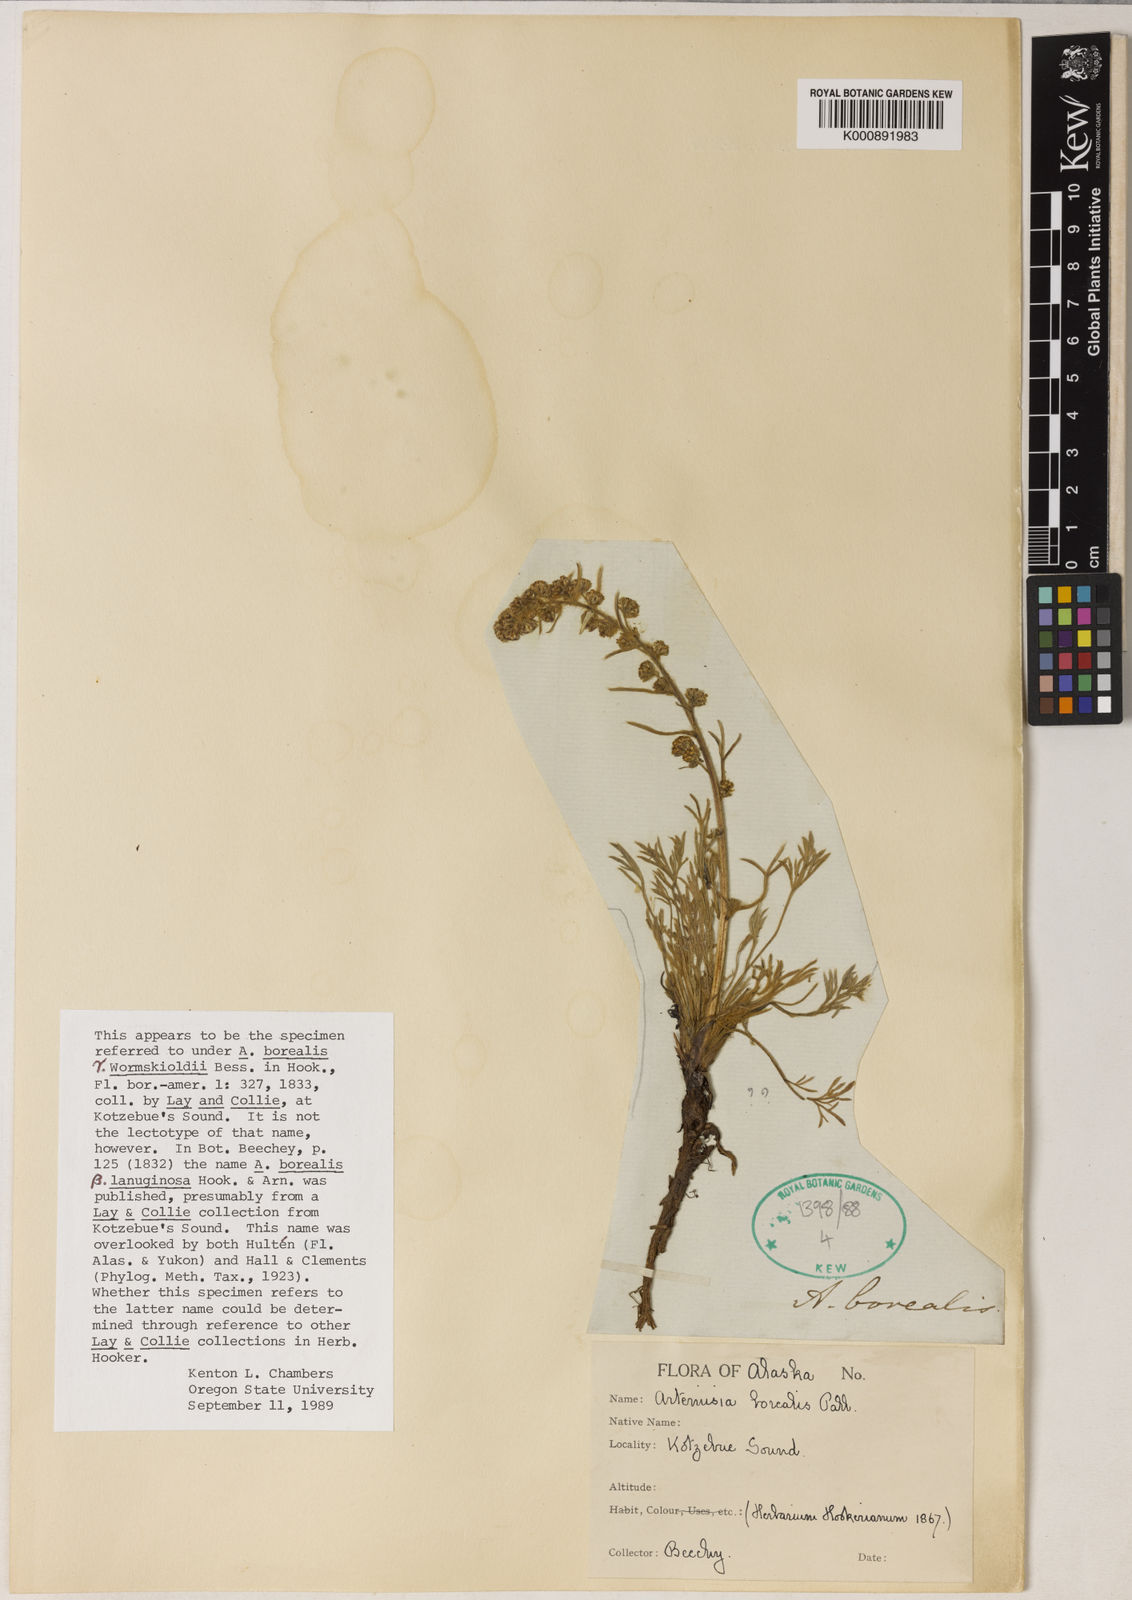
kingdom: Plantae
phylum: Tracheophyta
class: Magnoliopsida
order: Asterales
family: Asteraceae
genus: Artemisia
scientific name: Artemisia borealis
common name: Boreal sage
